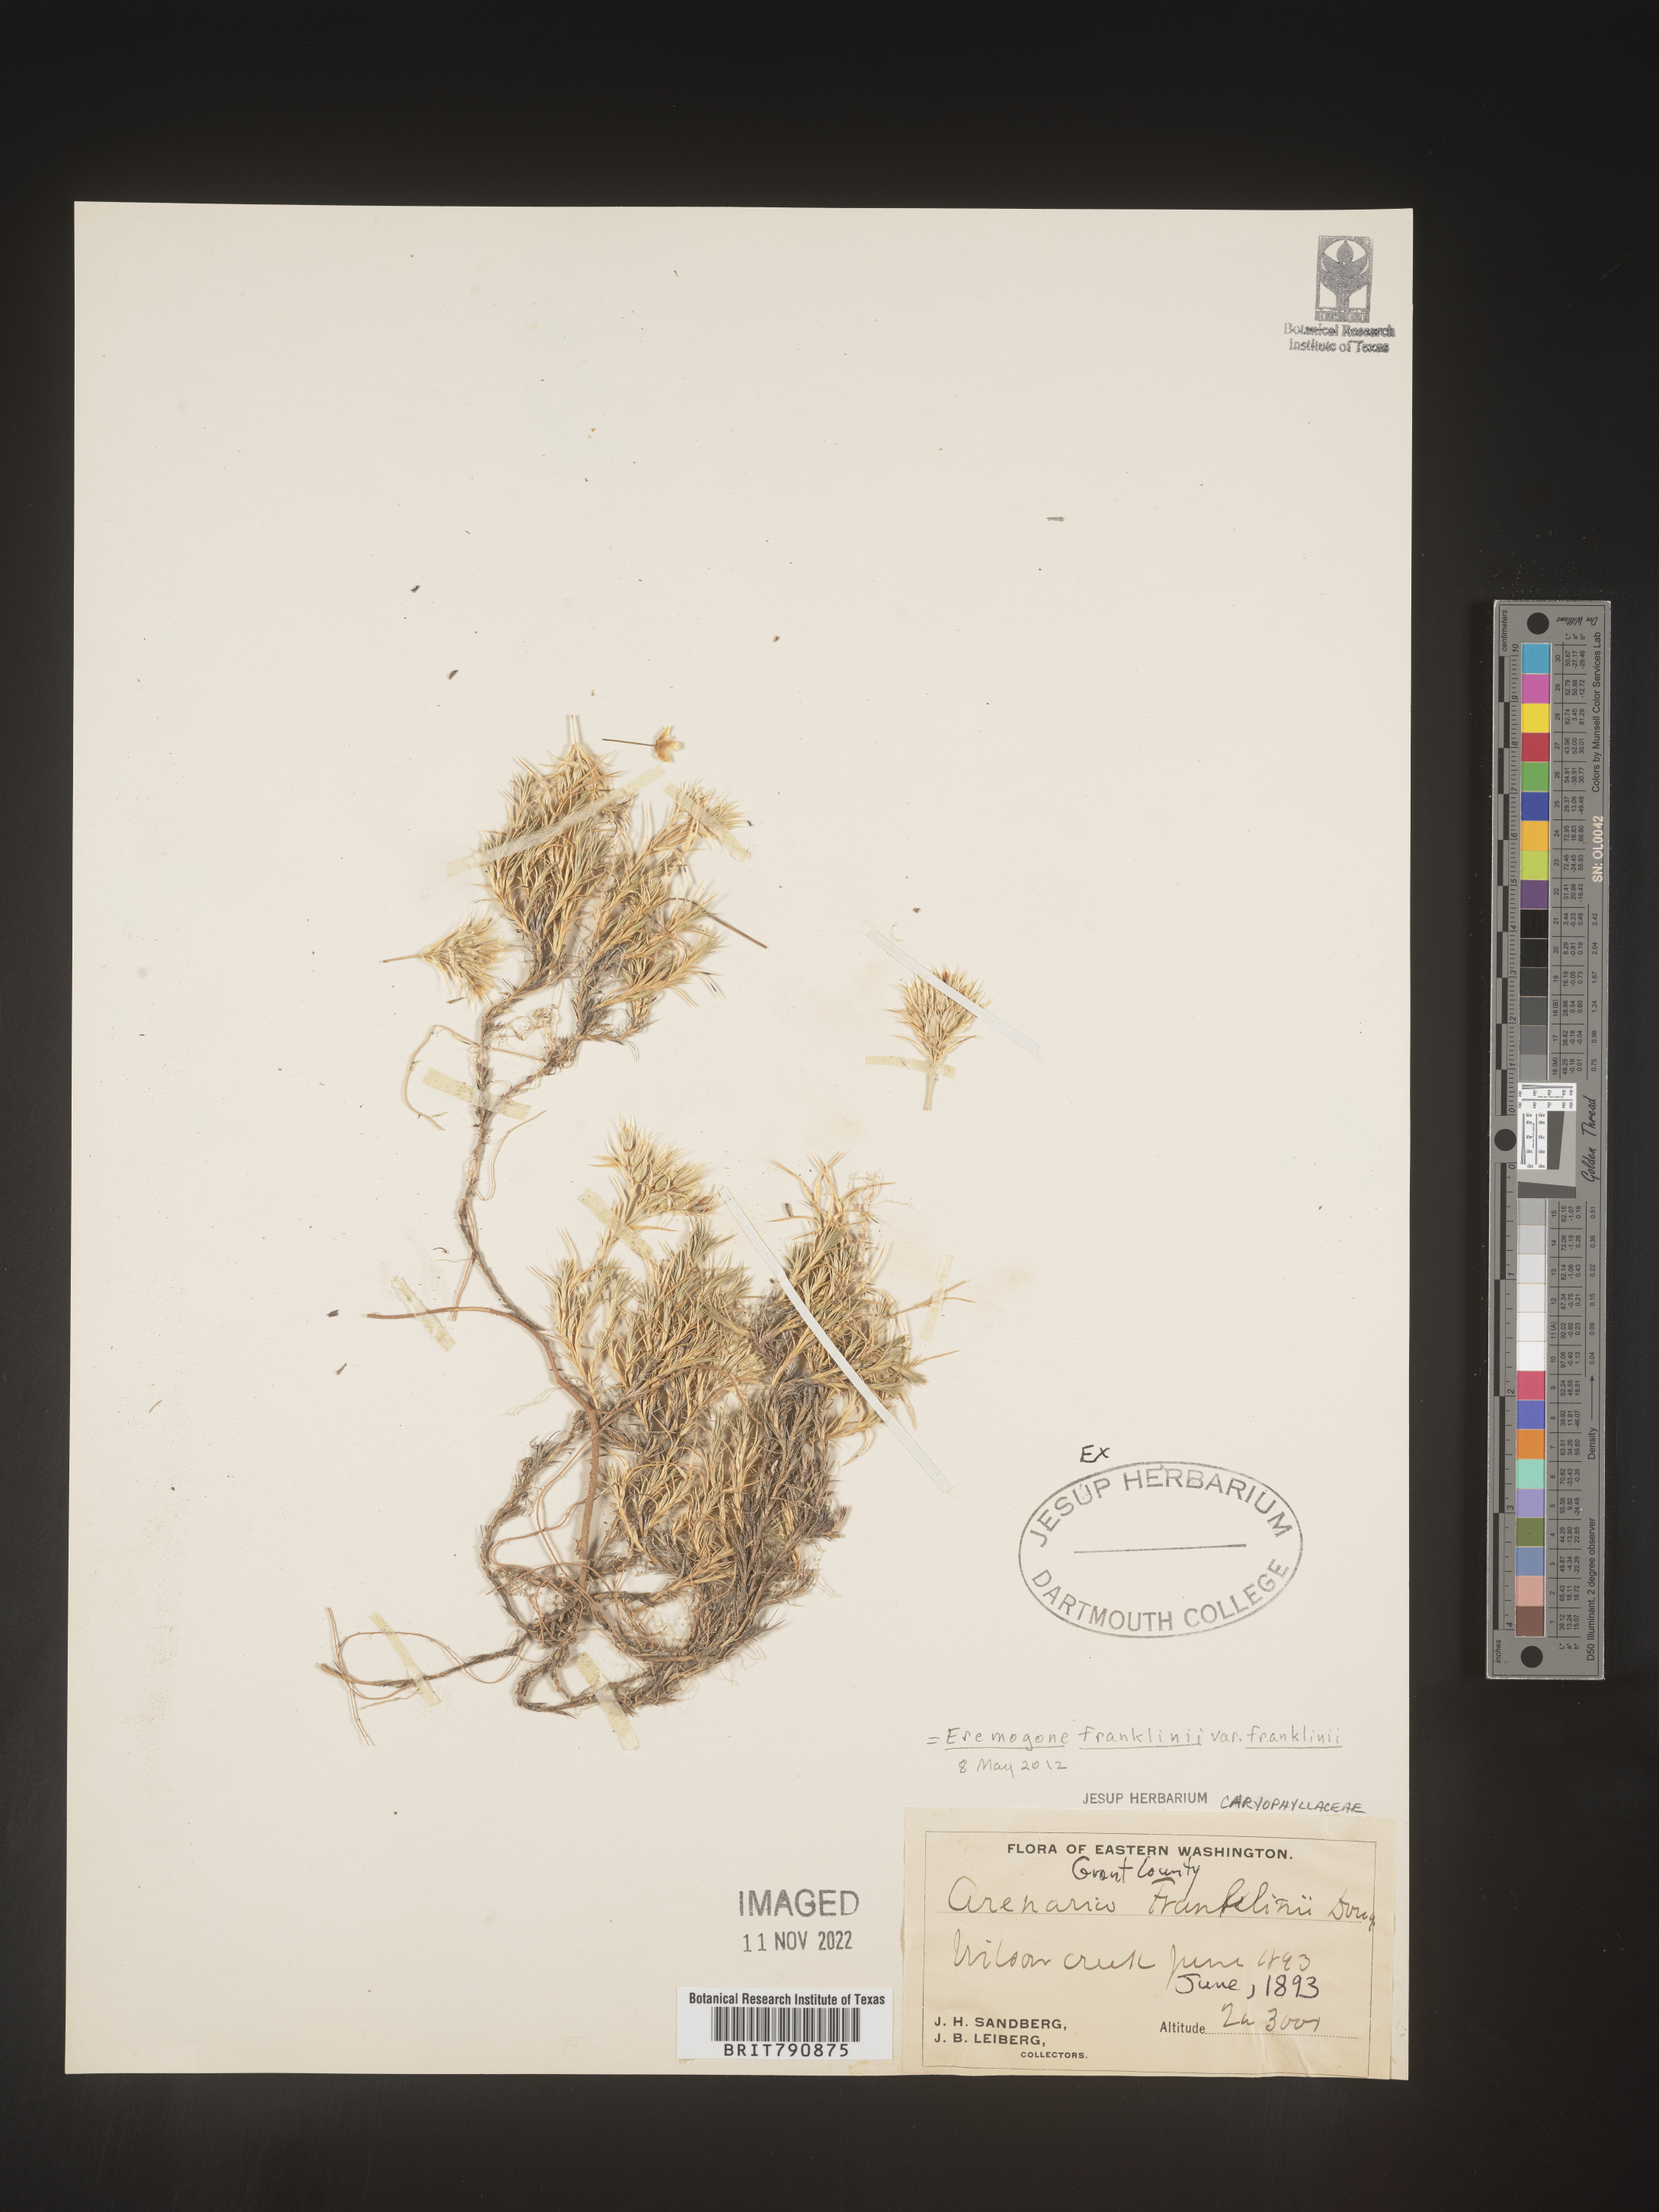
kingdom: Plantae
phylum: Tracheophyta
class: Magnoliopsida
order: Caryophyllales
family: Caryophyllaceae
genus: Eremogone
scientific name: Eremogone
